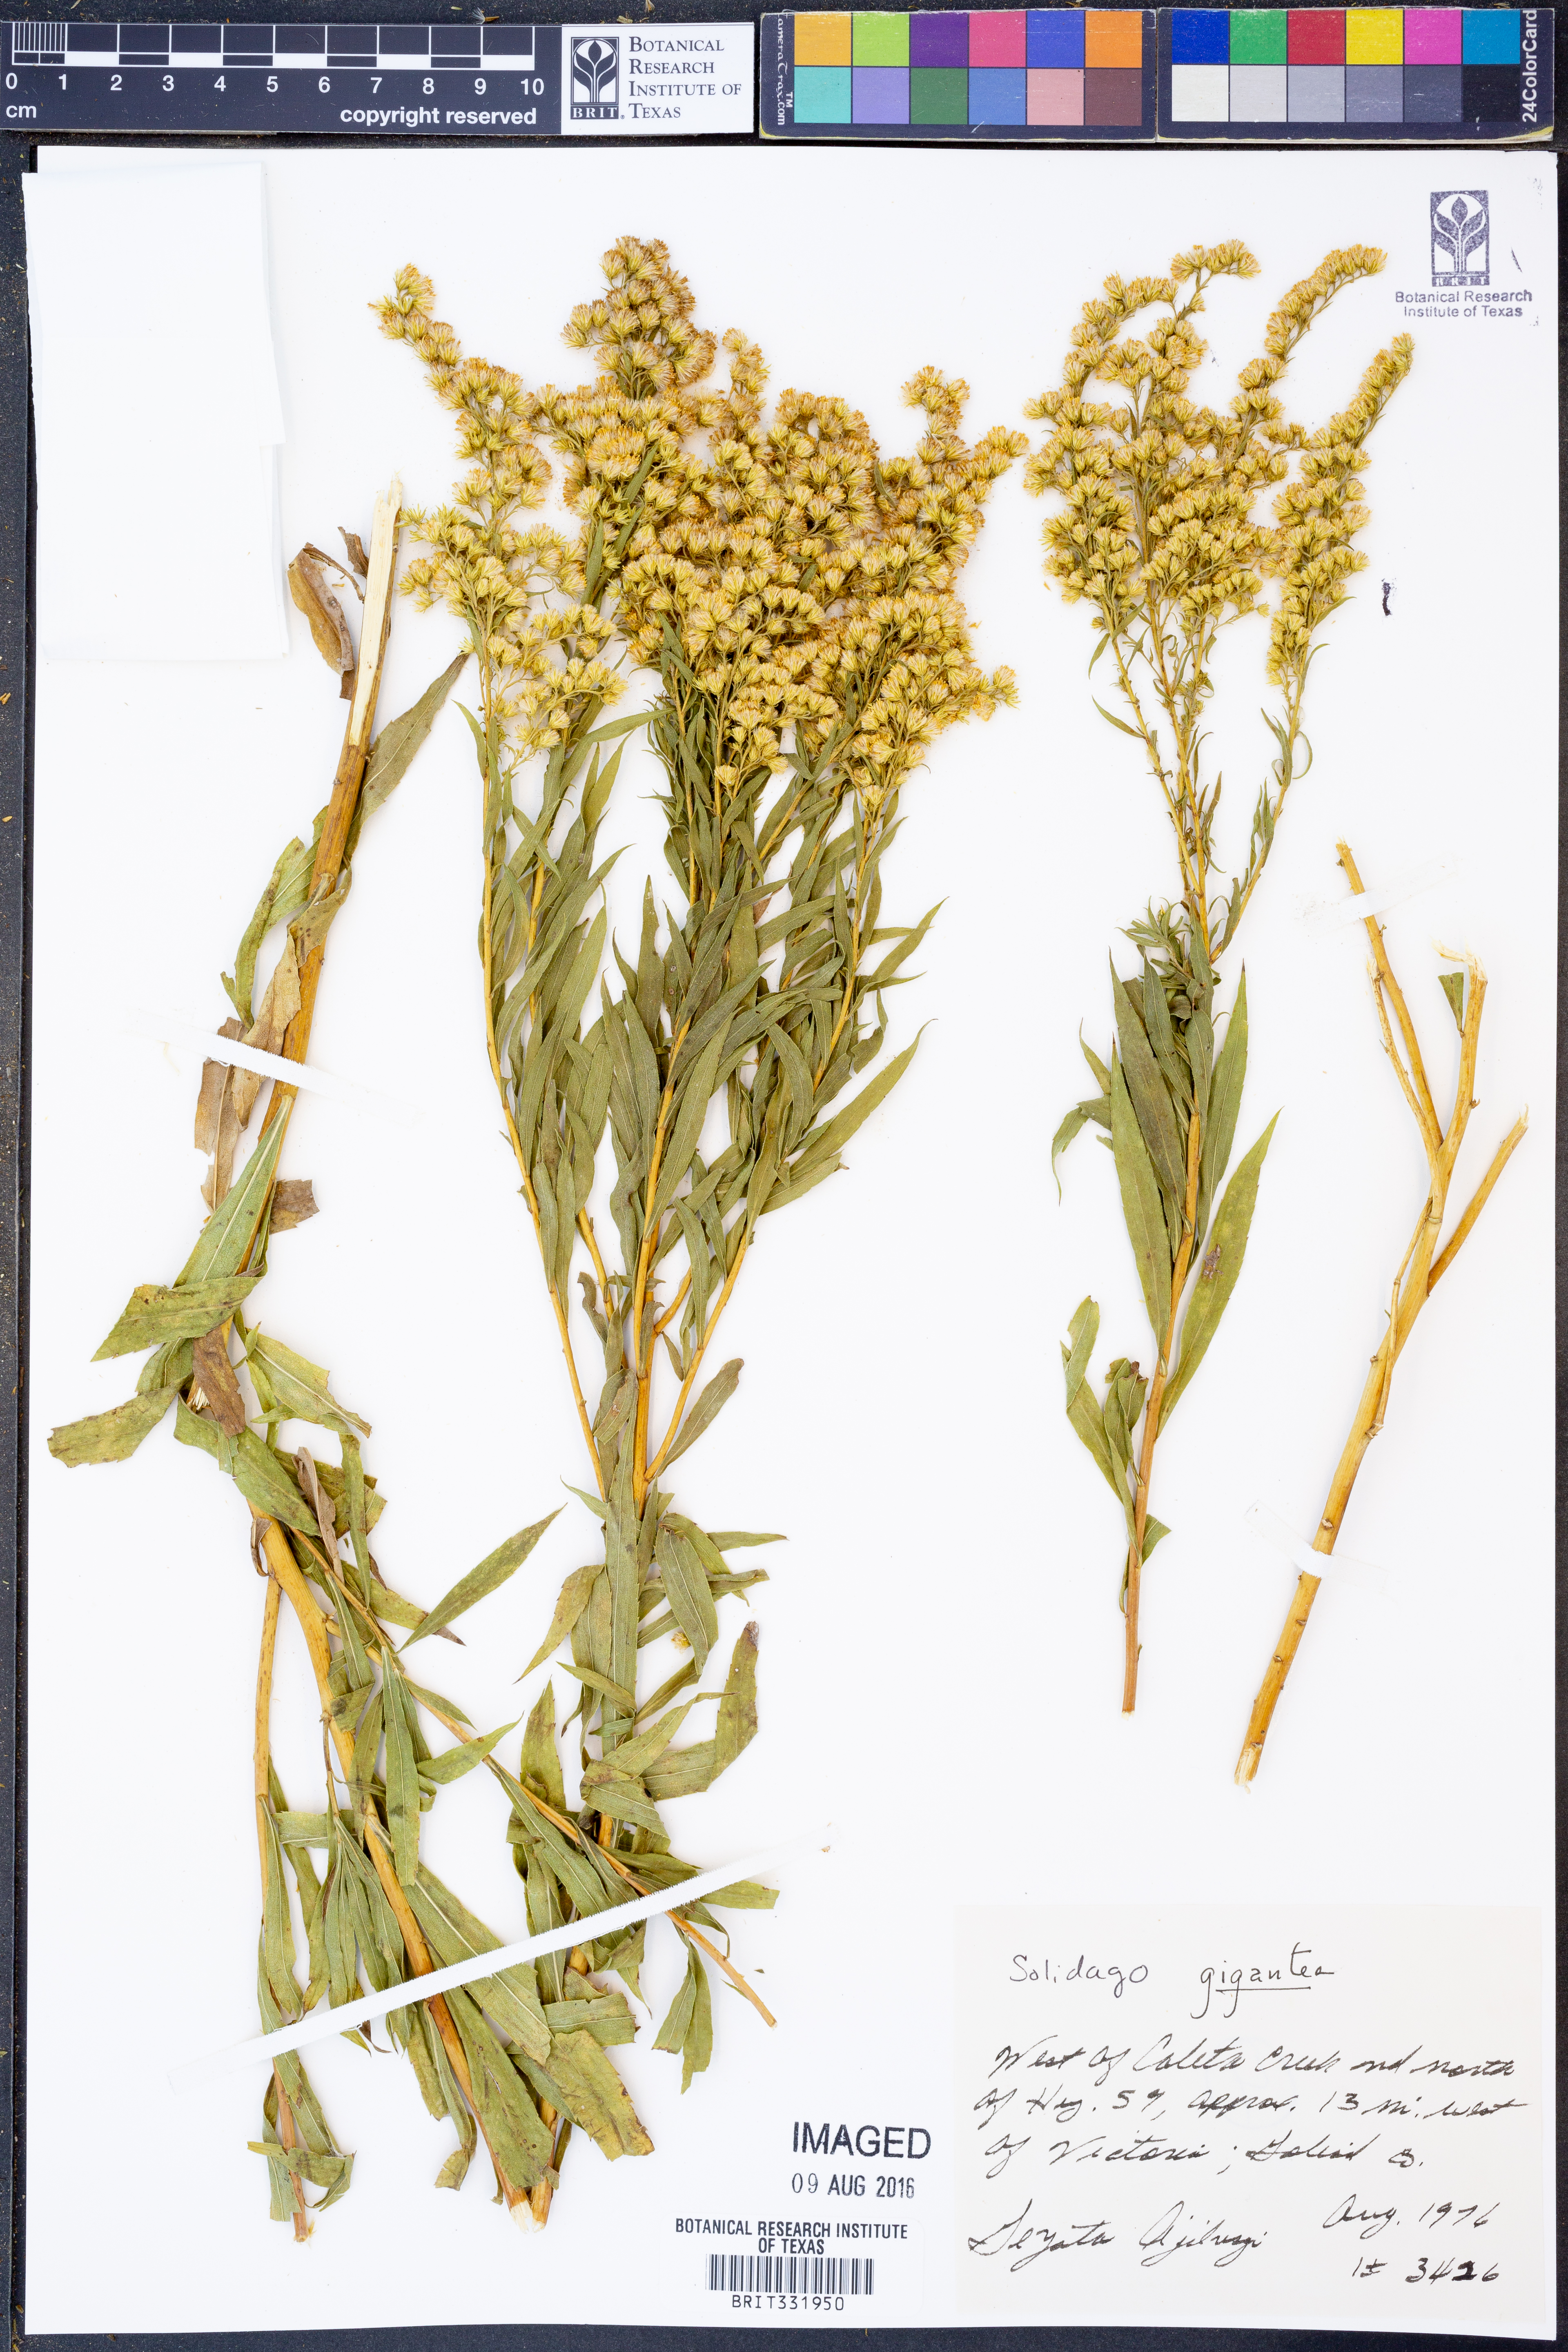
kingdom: Plantae
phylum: Tracheophyta
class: Magnoliopsida
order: Asterales
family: Asteraceae
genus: Solidago
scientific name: Solidago gigantea
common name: Giant goldenrod
